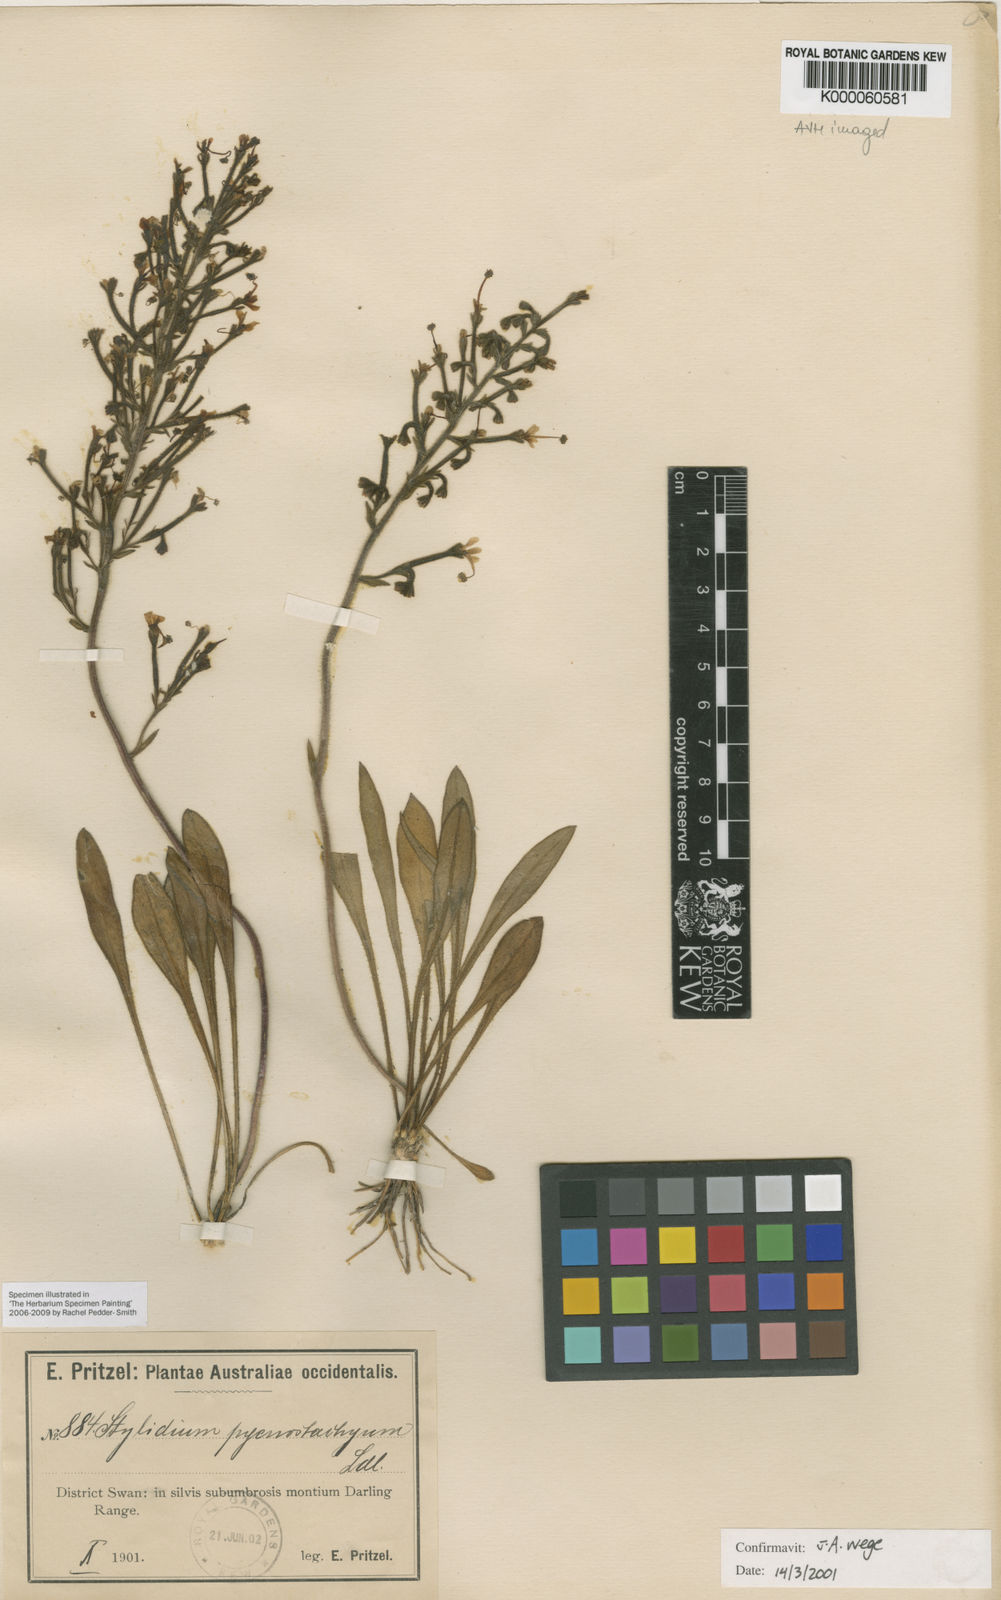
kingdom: Plantae
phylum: Tracheophyta
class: Magnoliopsida
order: Asterales
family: Stylidiaceae
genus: Stylidium
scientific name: Stylidium pycnostachyum
